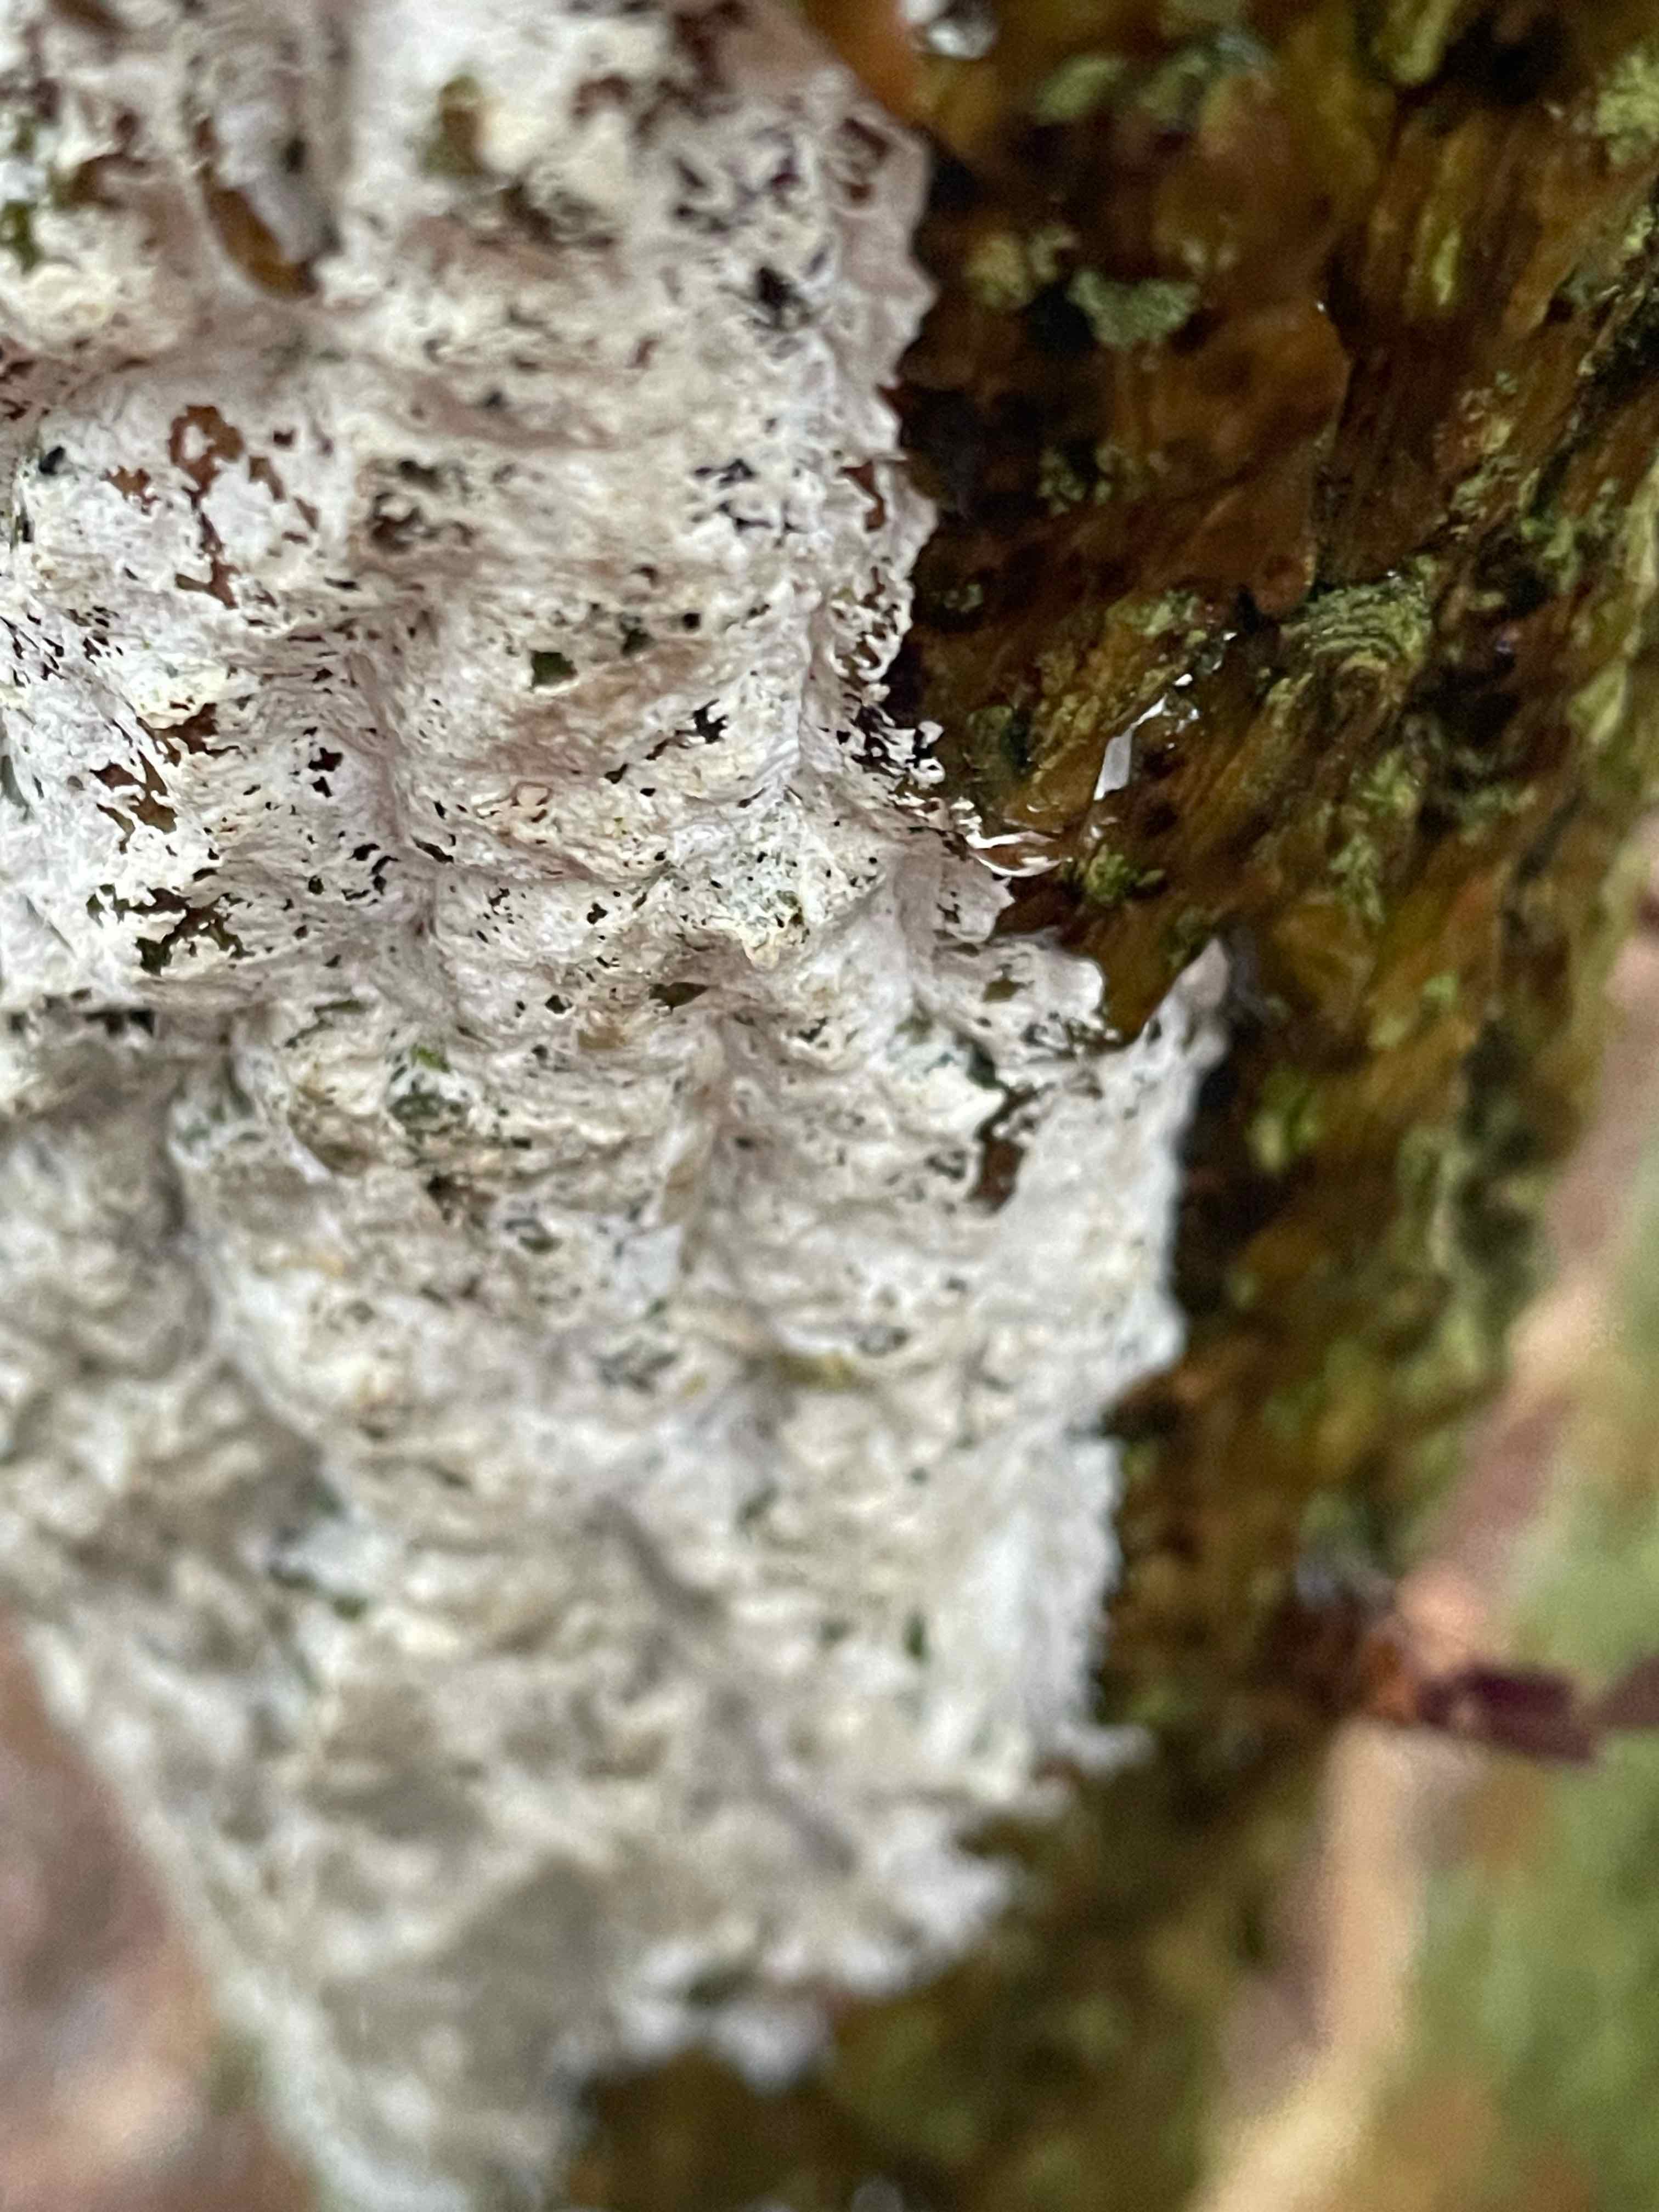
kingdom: Fungi
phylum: Basidiomycota
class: Agaricomycetes
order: Corticiales
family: Corticiaceae
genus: Lyomyces
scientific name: Lyomyces sambuci
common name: almindelig hyldehinde
